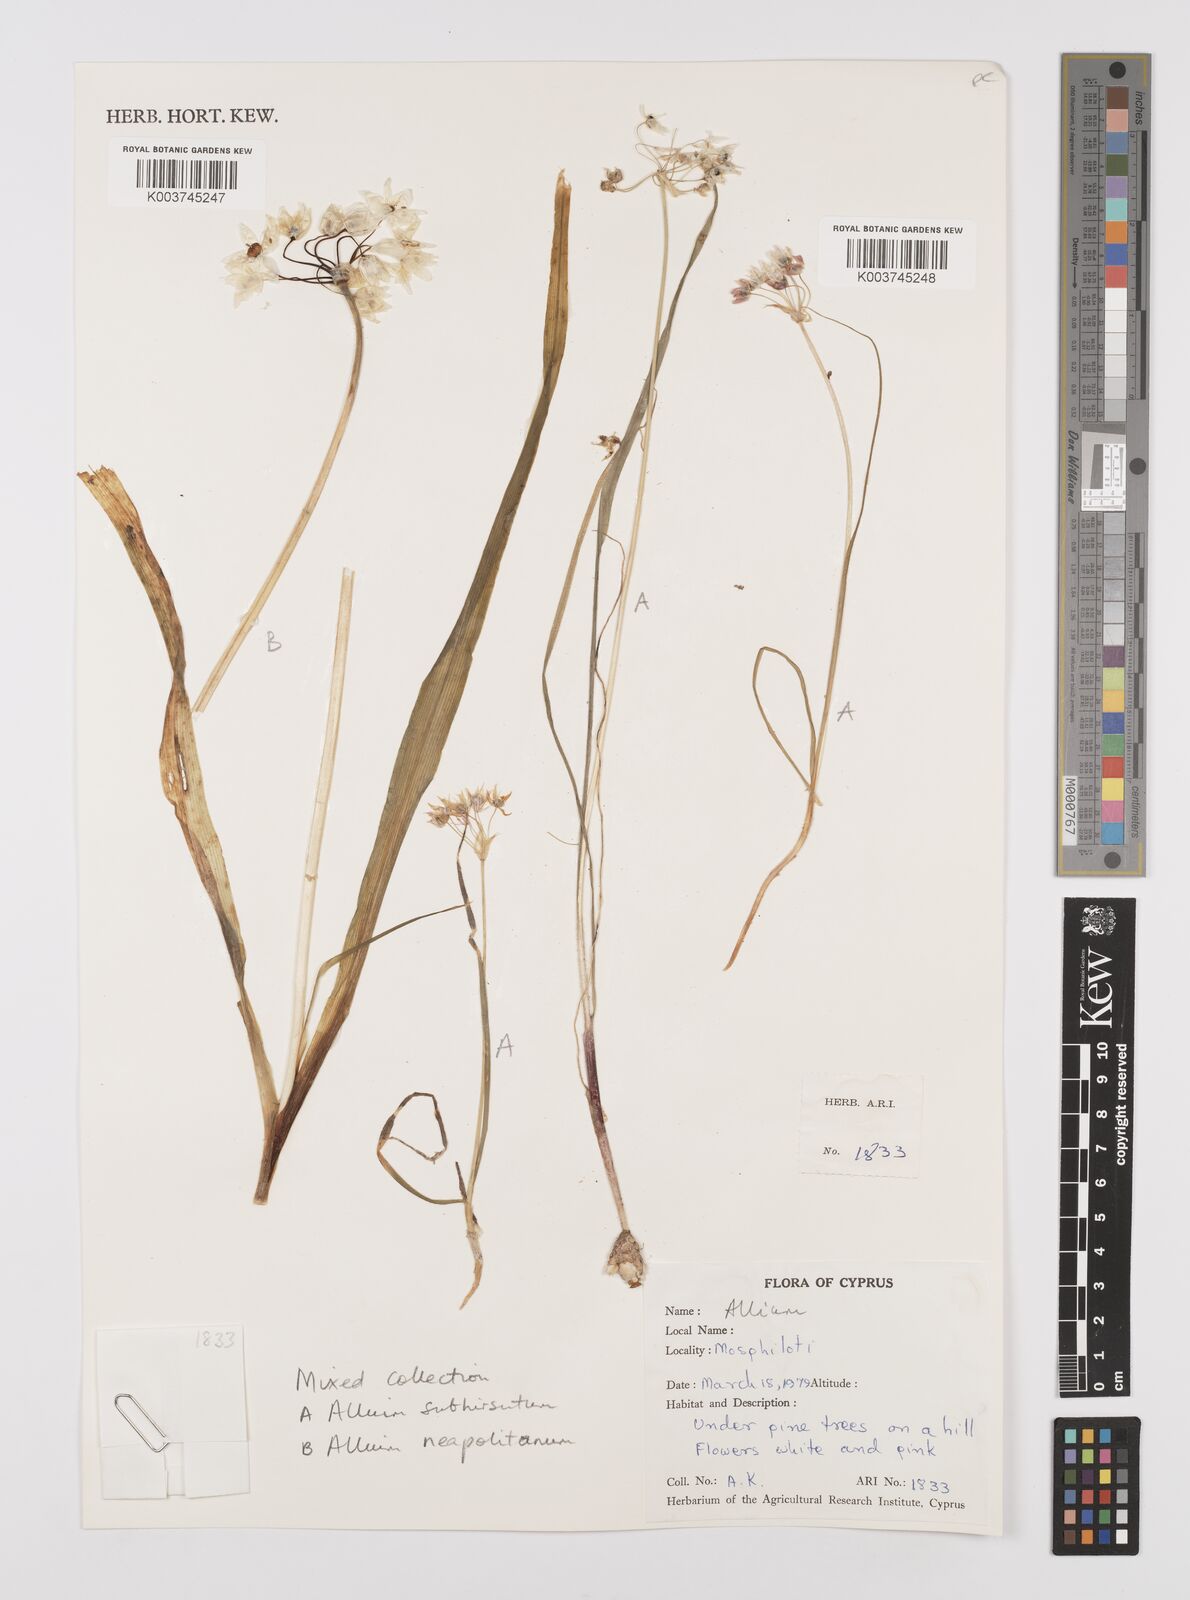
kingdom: Plantae
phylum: Tracheophyta
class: Liliopsida
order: Asparagales
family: Amaryllidaceae
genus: Allium
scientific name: Allium trifoliatum
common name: Pink garlic
